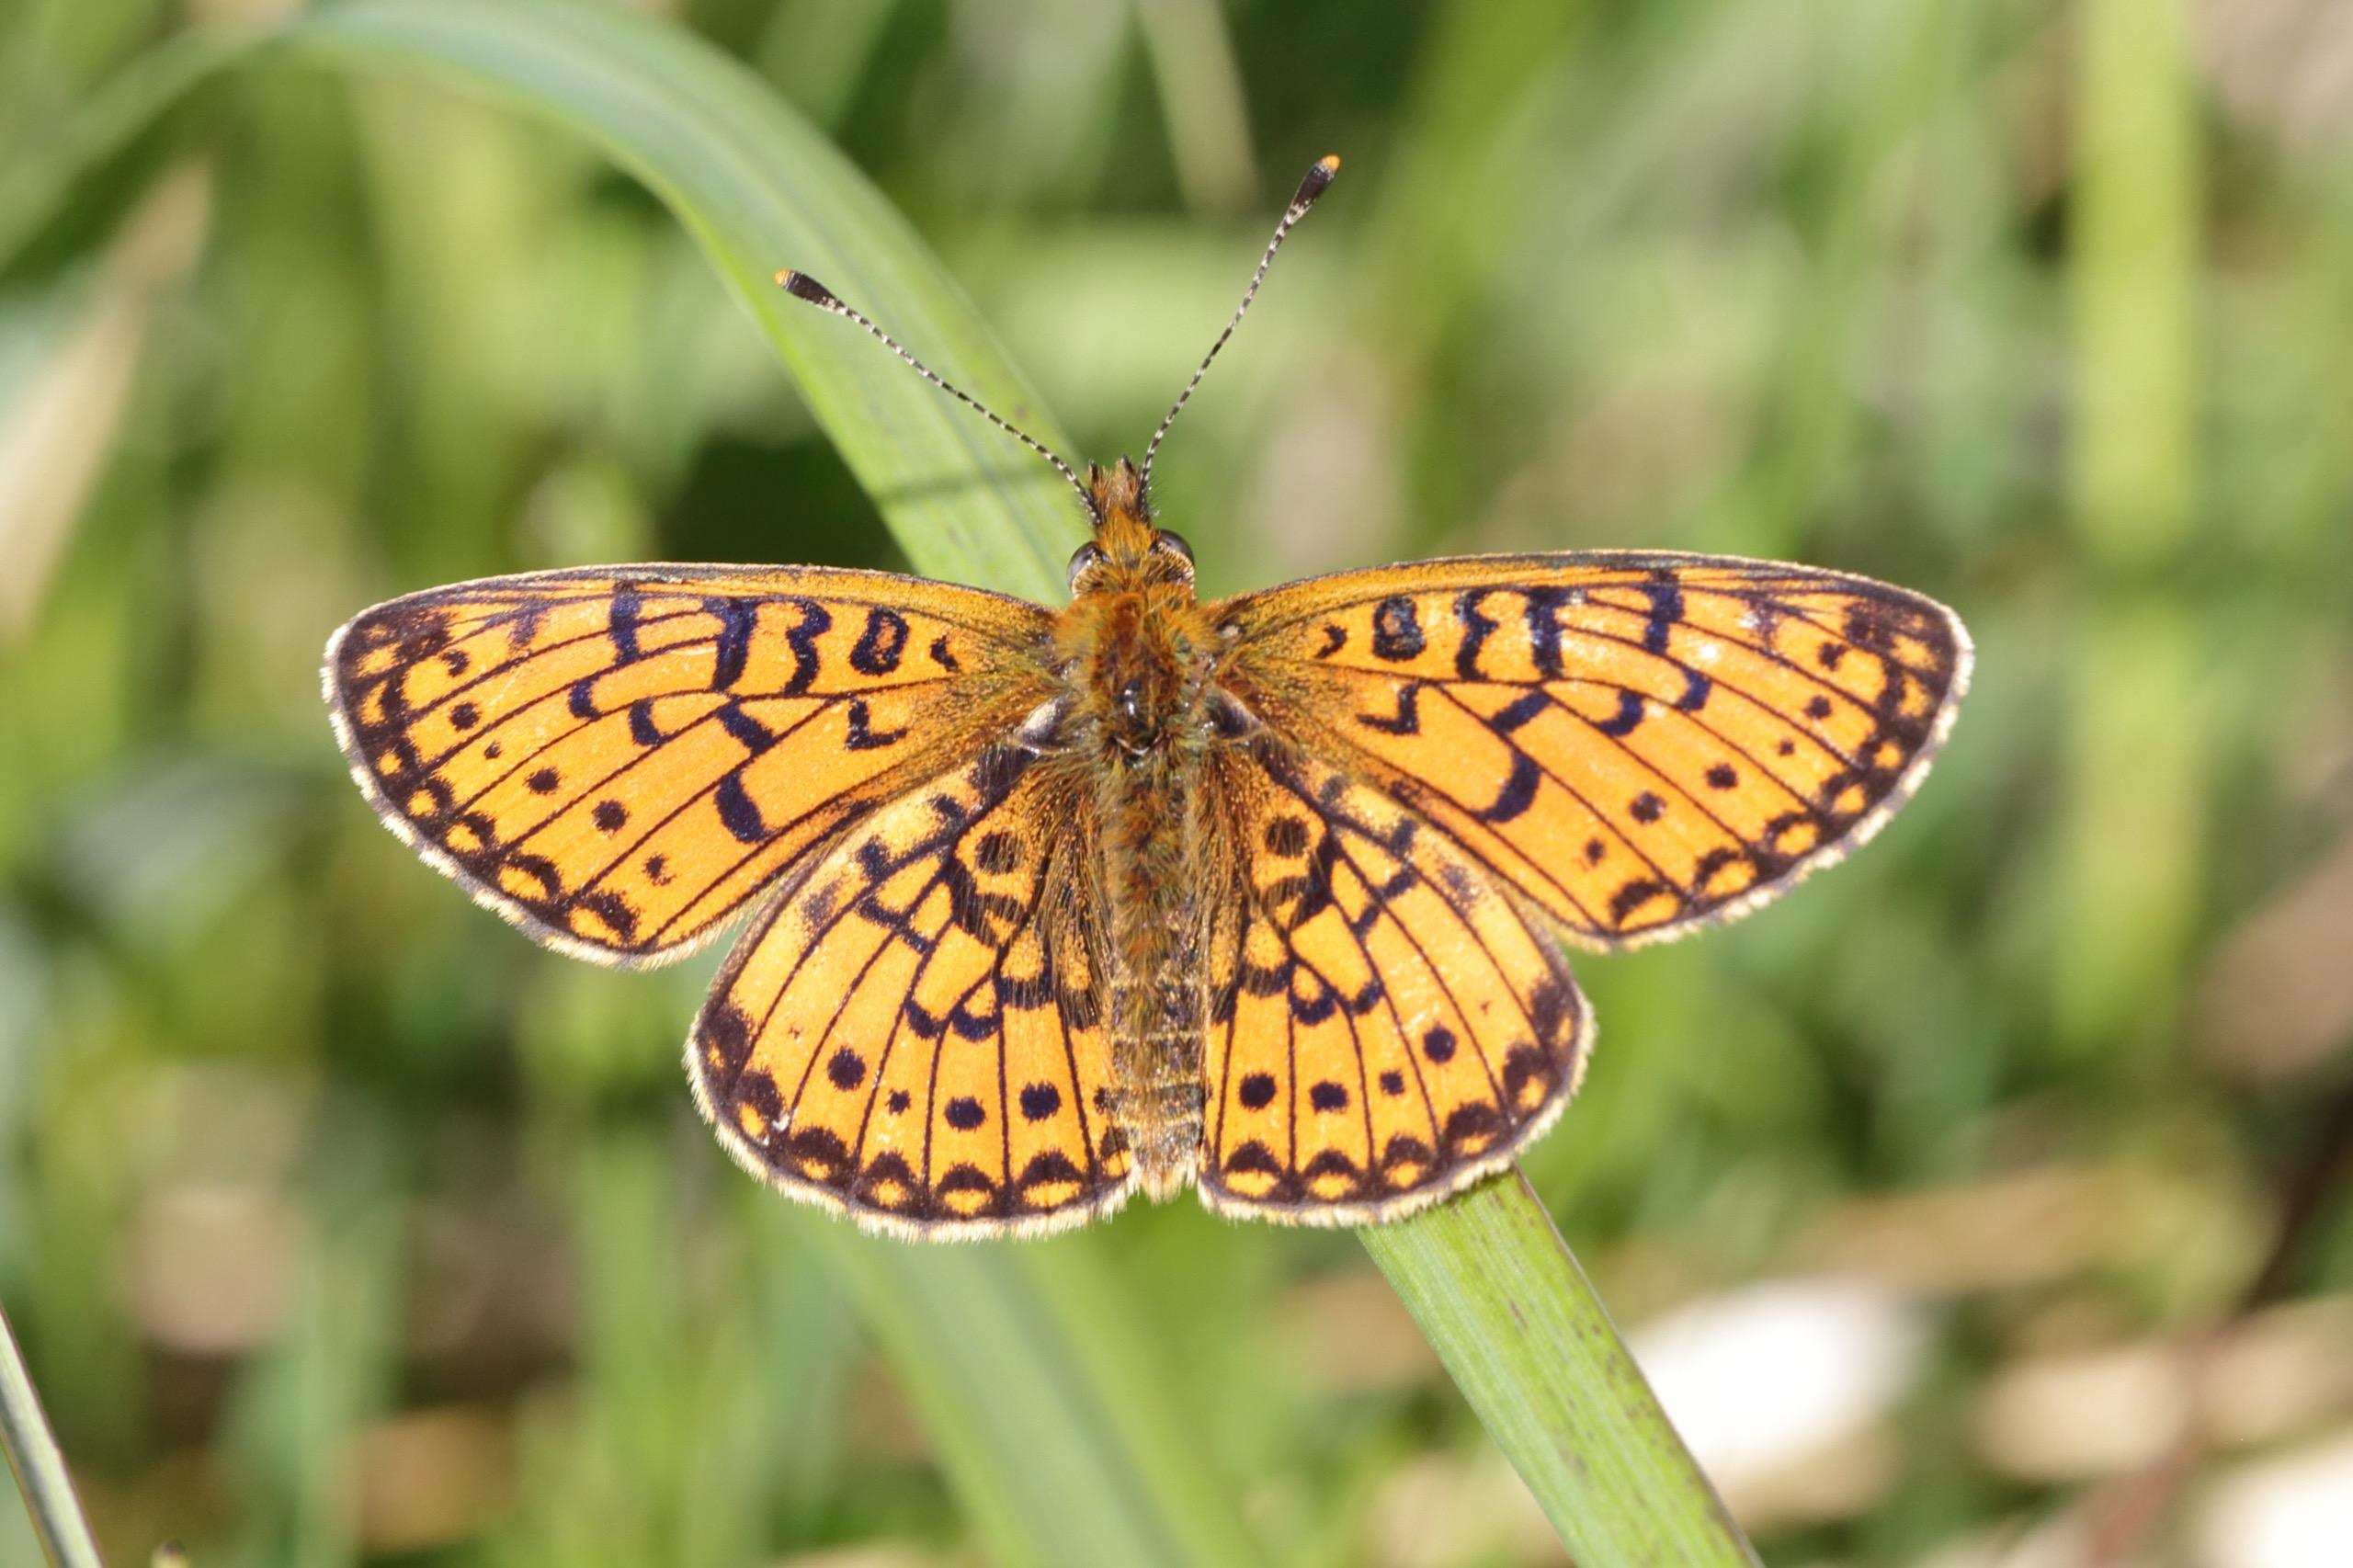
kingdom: Animalia
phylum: Arthropoda
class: Insecta
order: Lepidoptera
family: Nymphalidae
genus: Boloria
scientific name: Boloria selene
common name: Brunlig perlemorsommerfugl
